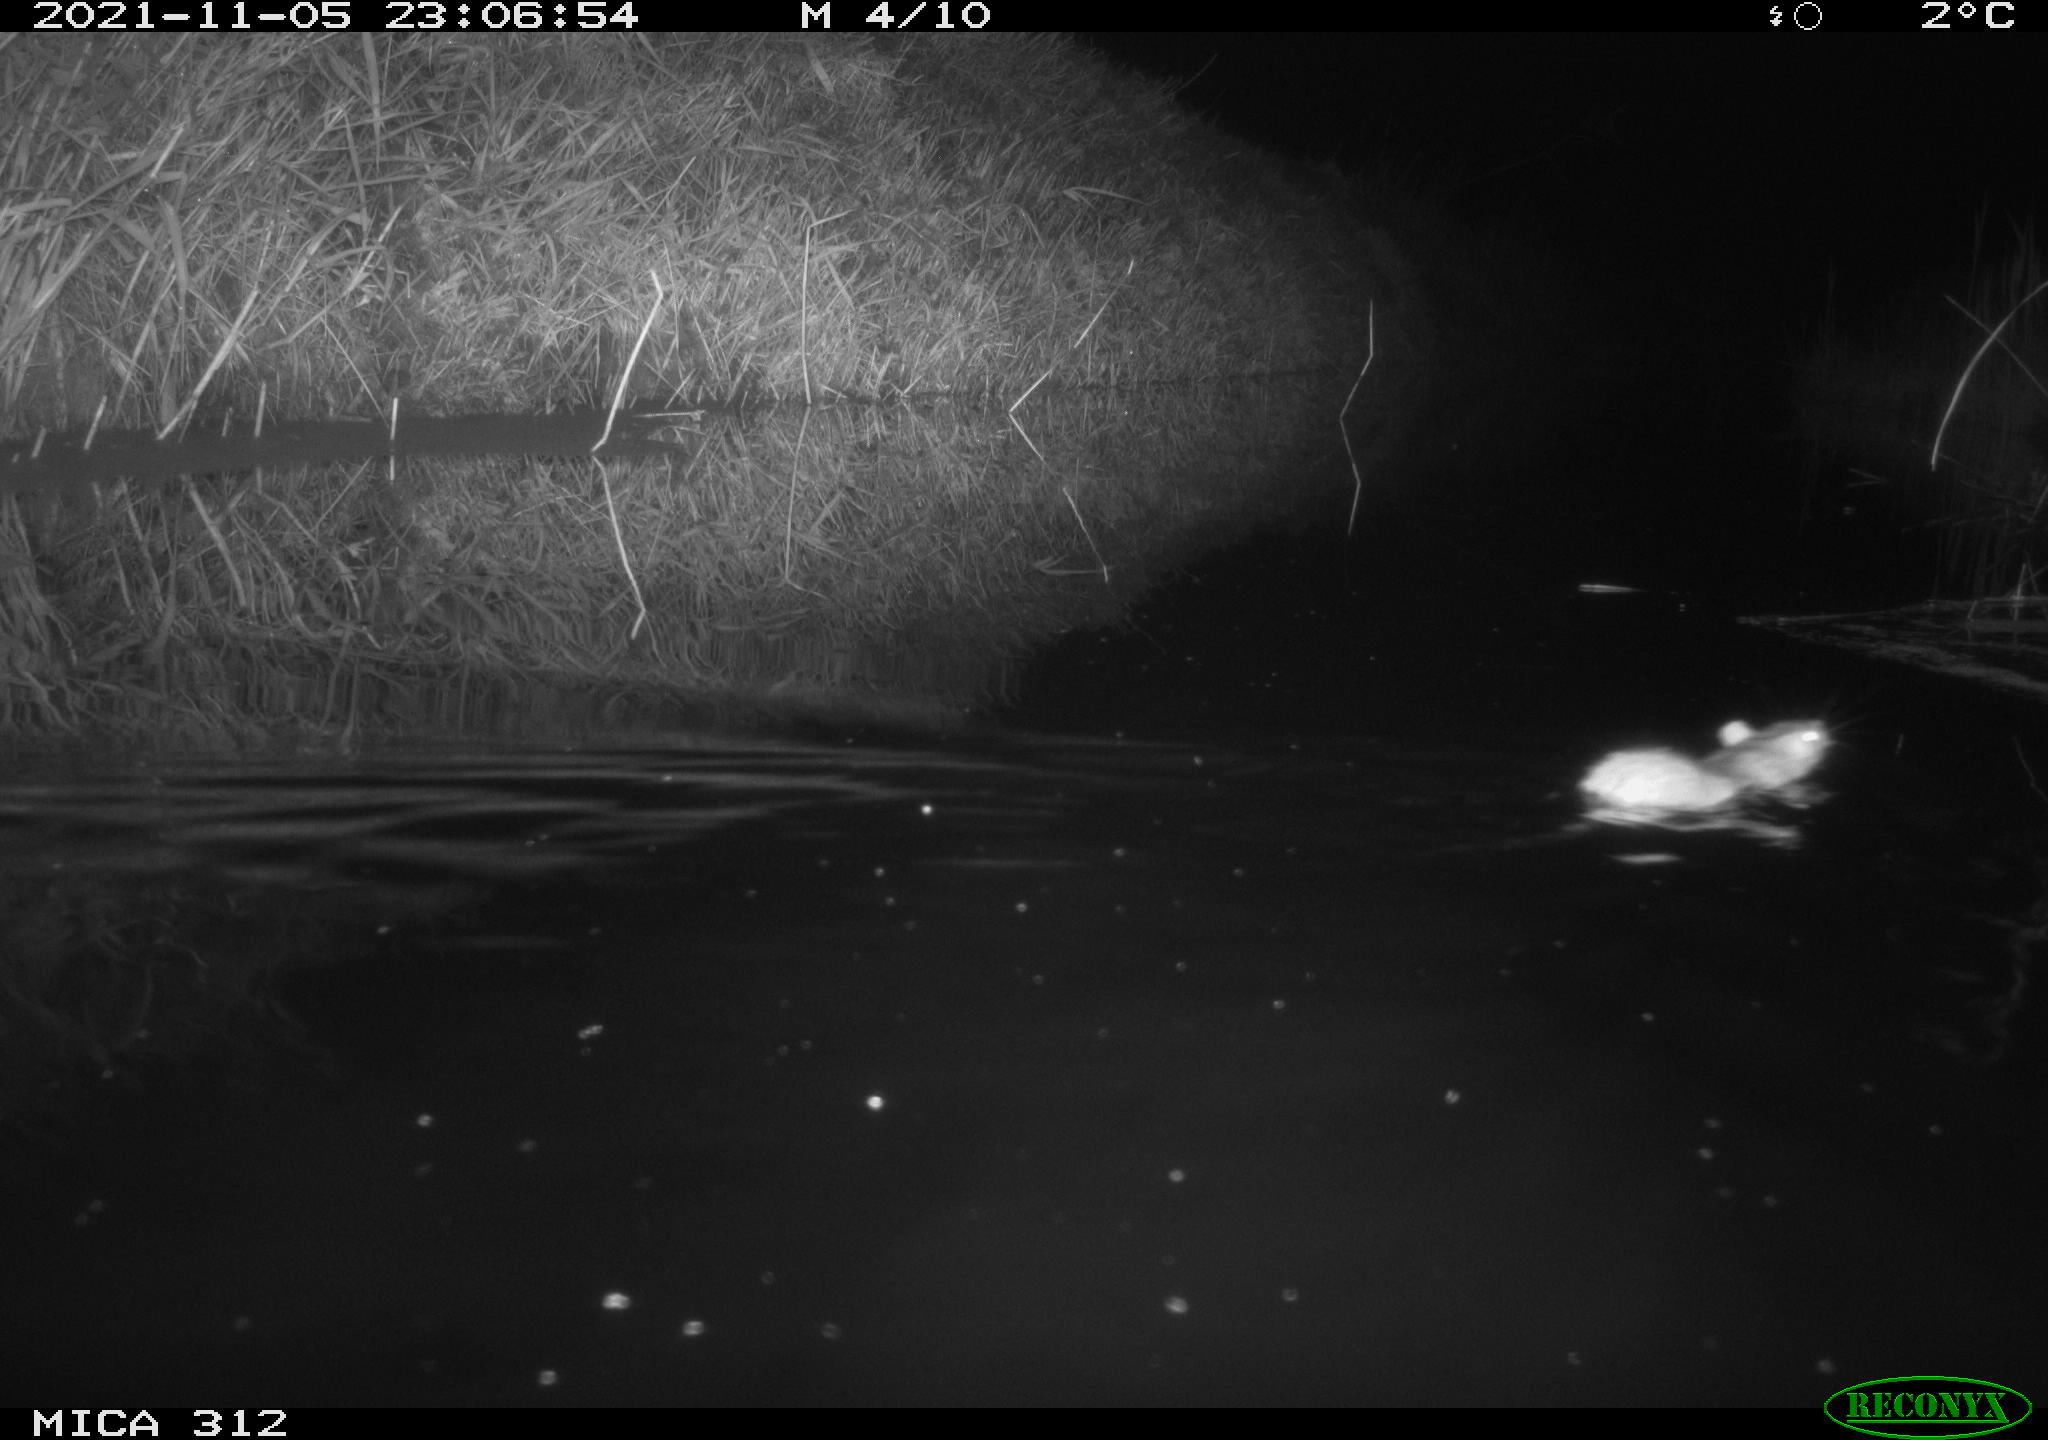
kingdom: Animalia
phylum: Chordata
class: Mammalia
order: Rodentia
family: Muridae
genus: Rattus
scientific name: Rattus norvegicus
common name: Brown rat
